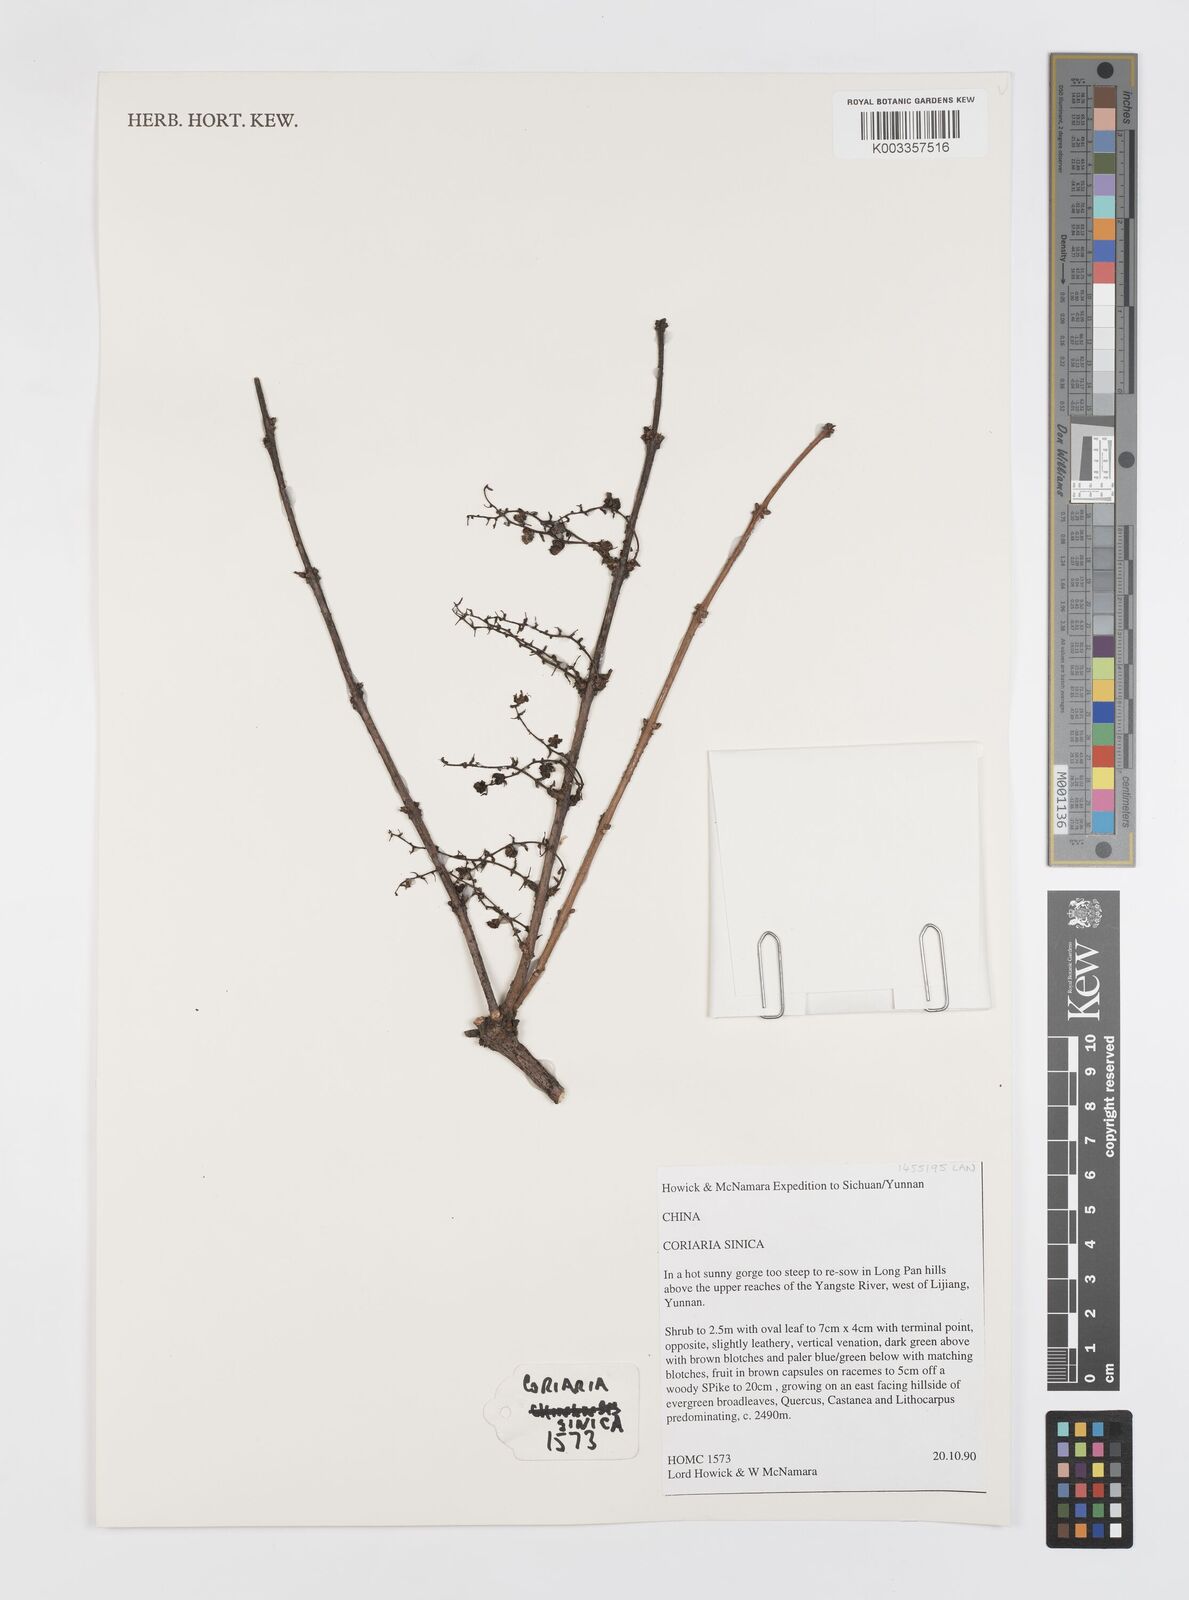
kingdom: Plantae
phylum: Tracheophyta
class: Magnoliopsida
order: Cucurbitales
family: Coriariaceae
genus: Coriaria
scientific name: Coriaria napalensis
